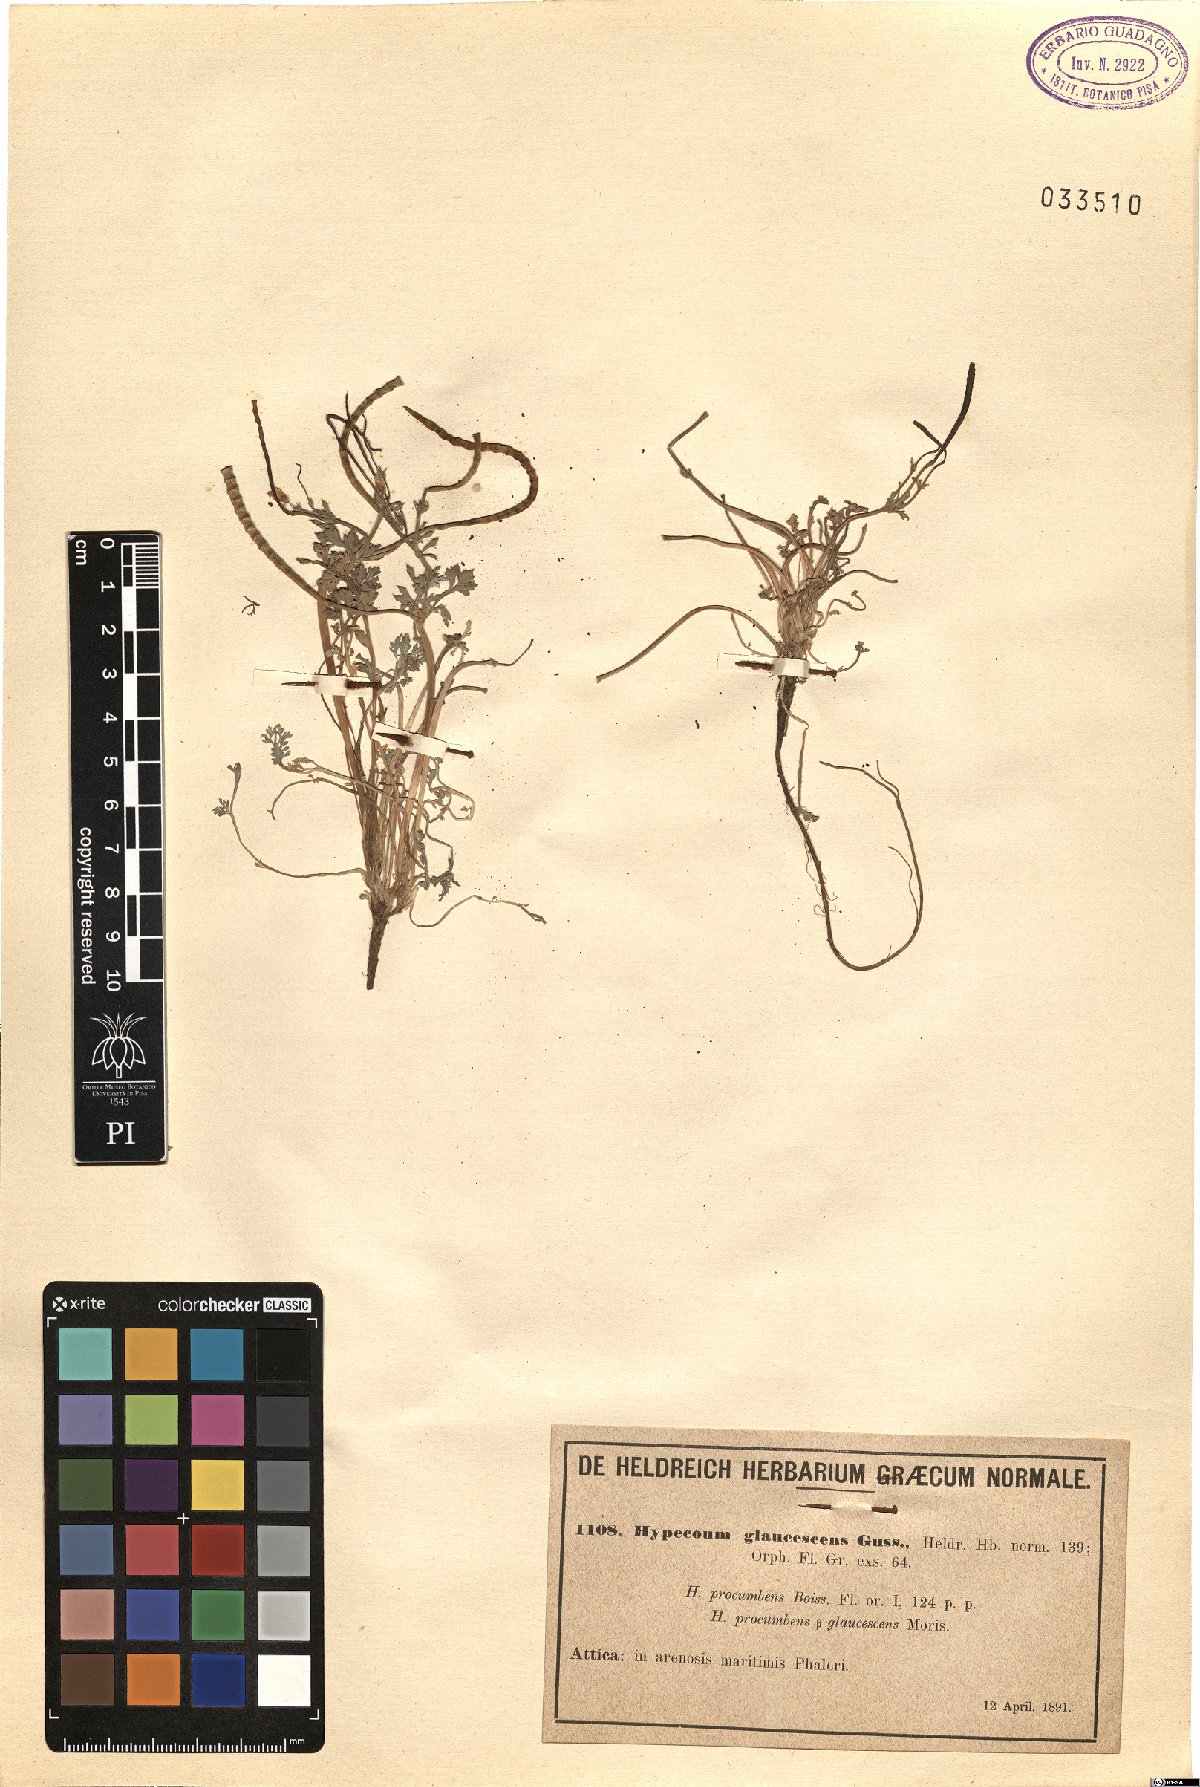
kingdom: Plantae
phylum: Tracheophyta
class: Magnoliopsida
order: Ranunculales
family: Papaveraceae
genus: Hypecoum
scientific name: Hypecoum
